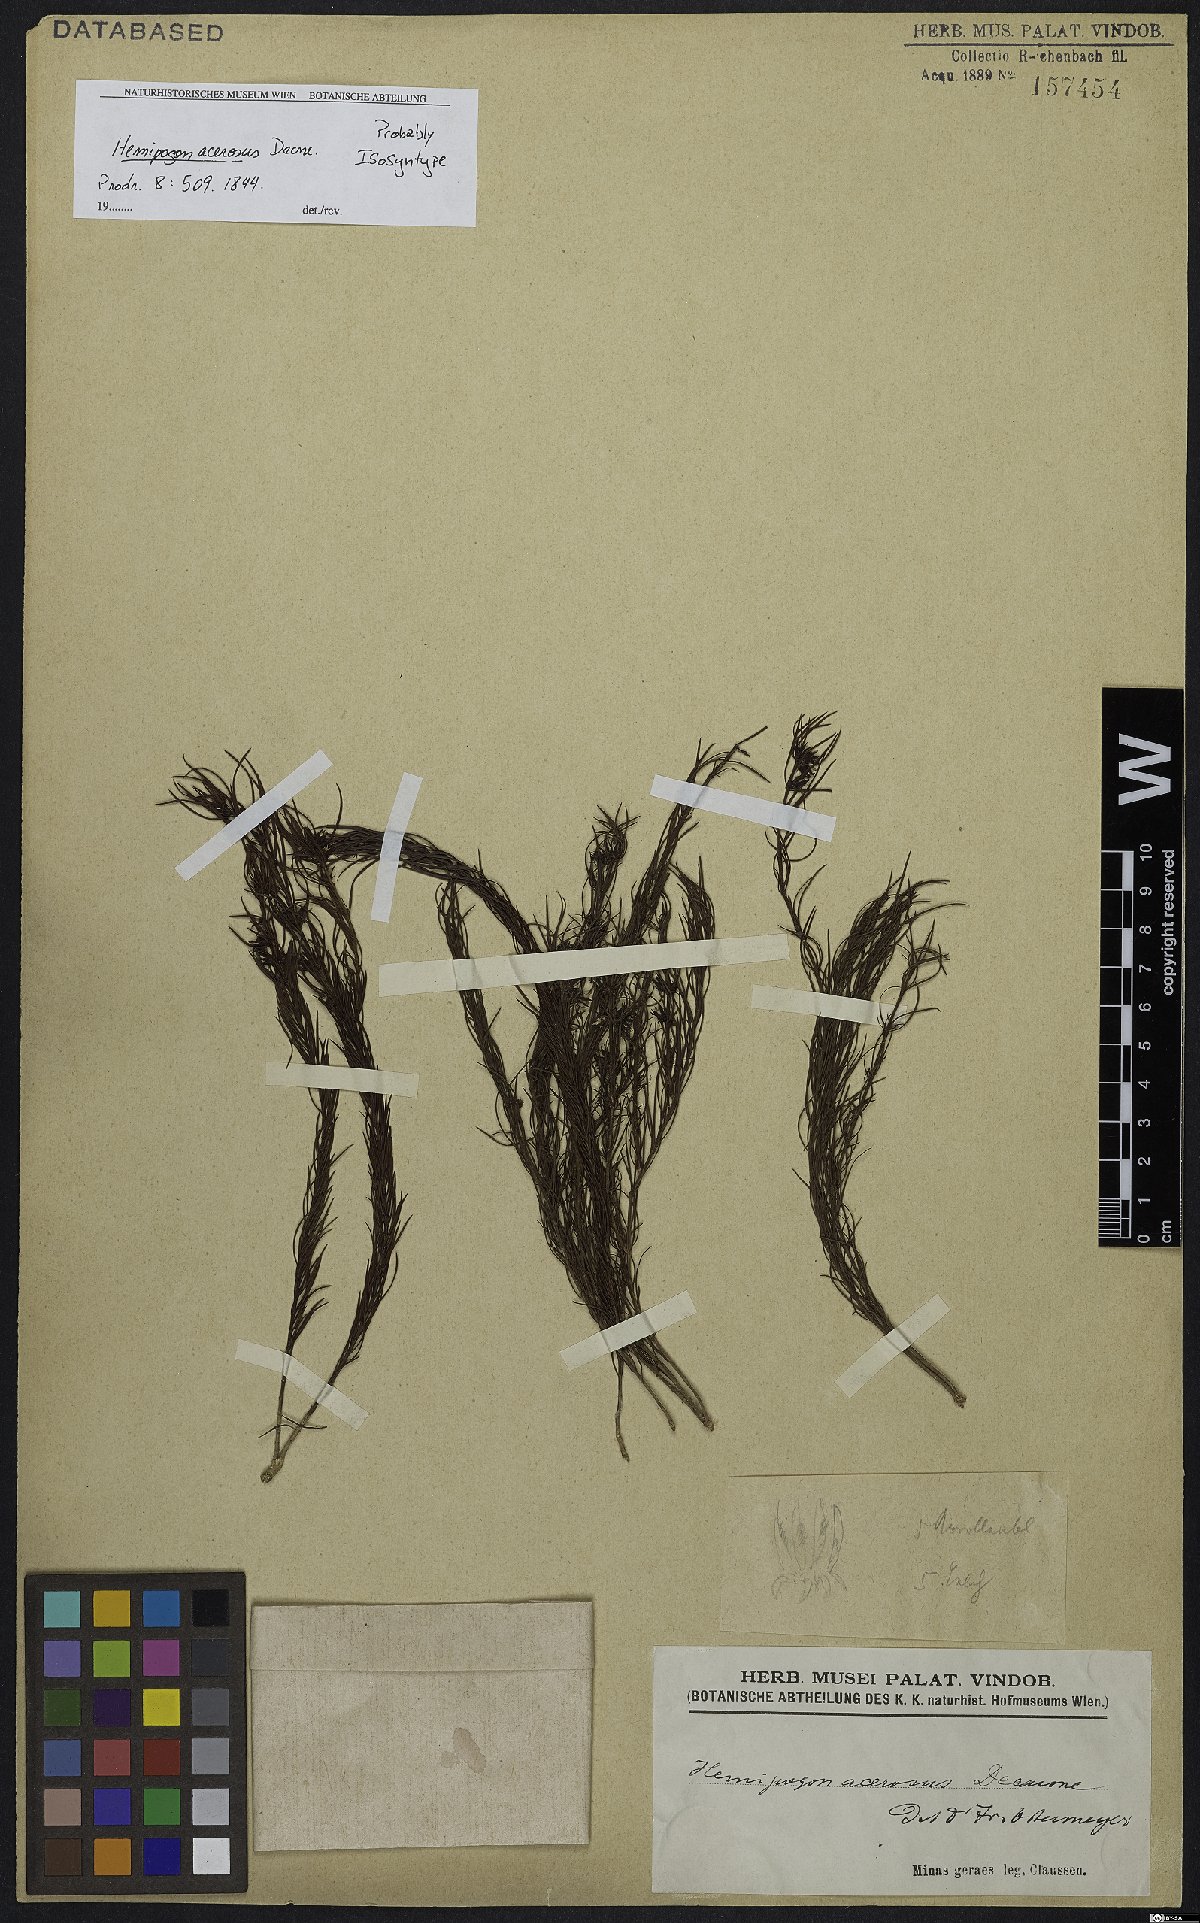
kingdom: Plantae
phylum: Tracheophyta
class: Magnoliopsida
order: Gentianales
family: Apocynaceae
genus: Hemipogon
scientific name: Hemipogon acerosus
